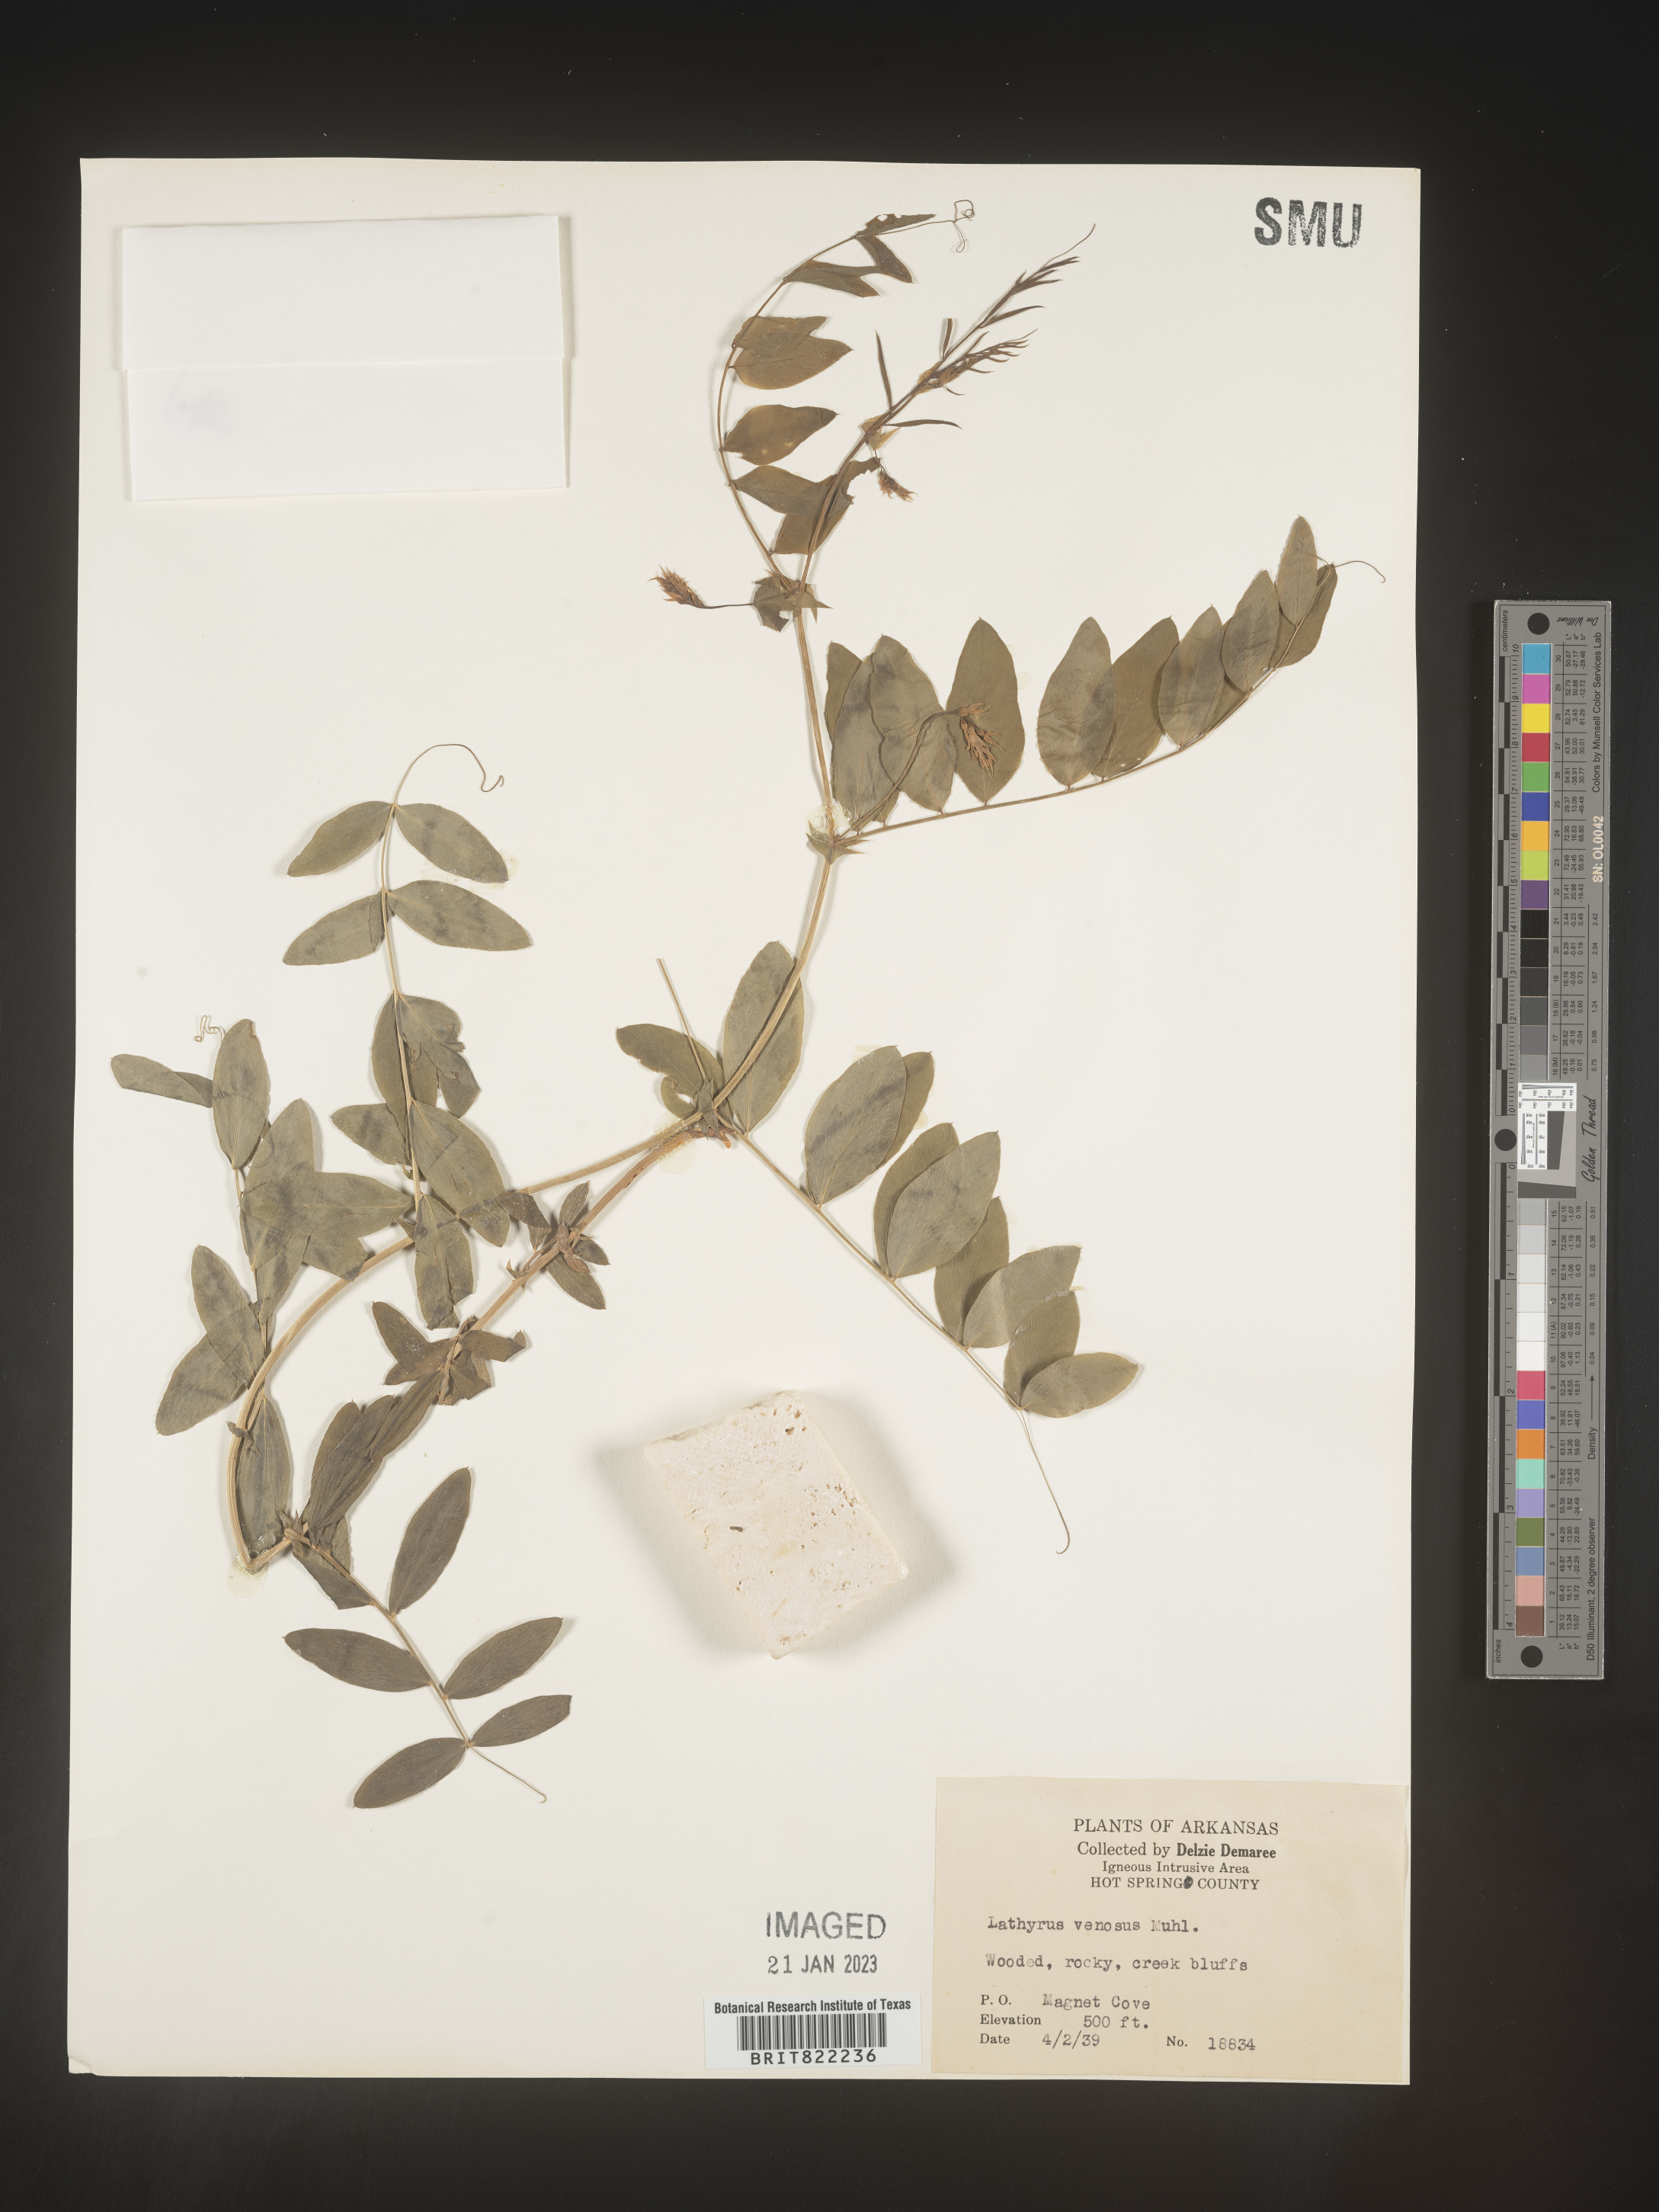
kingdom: Plantae
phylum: Tracheophyta
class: Magnoliopsida
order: Fabales
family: Fabaceae
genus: Lathyrus
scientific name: Lathyrus venosus
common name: Forest-pea
